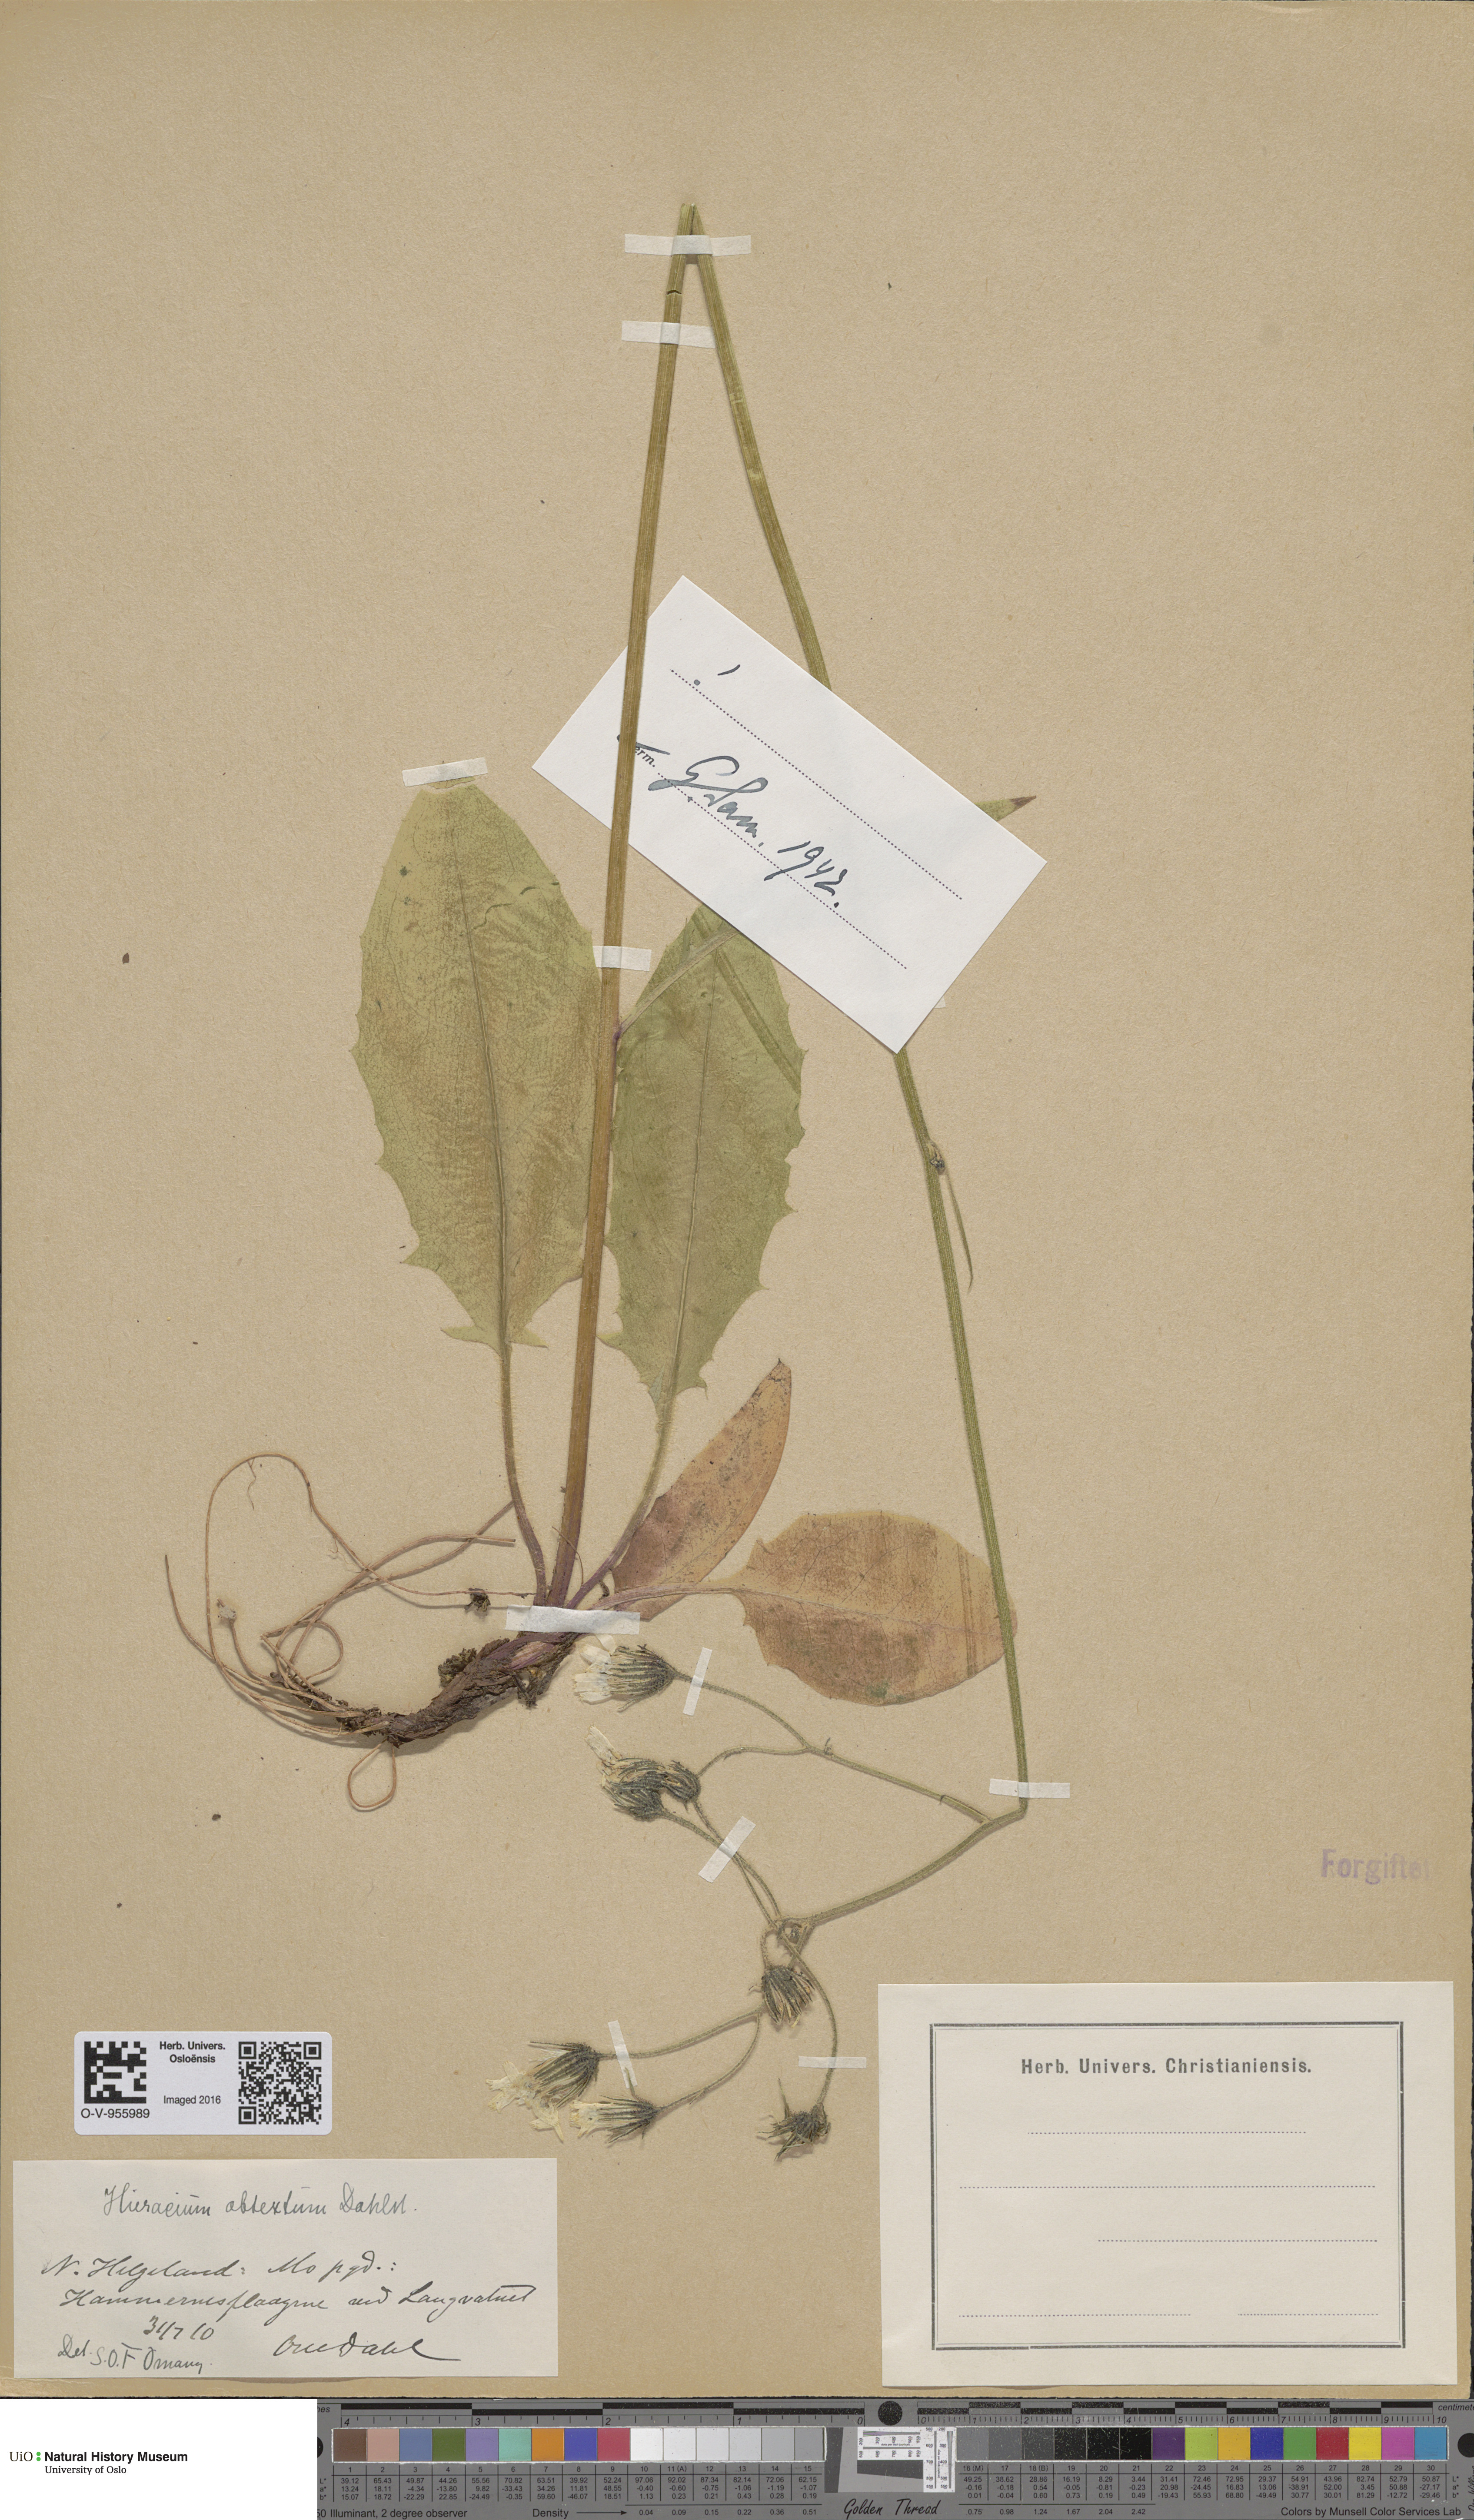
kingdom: Plantae
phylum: Tracheophyta
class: Magnoliopsida
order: Asterales
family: Asteraceae
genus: Hieracium
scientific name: Hieracium obtextum
